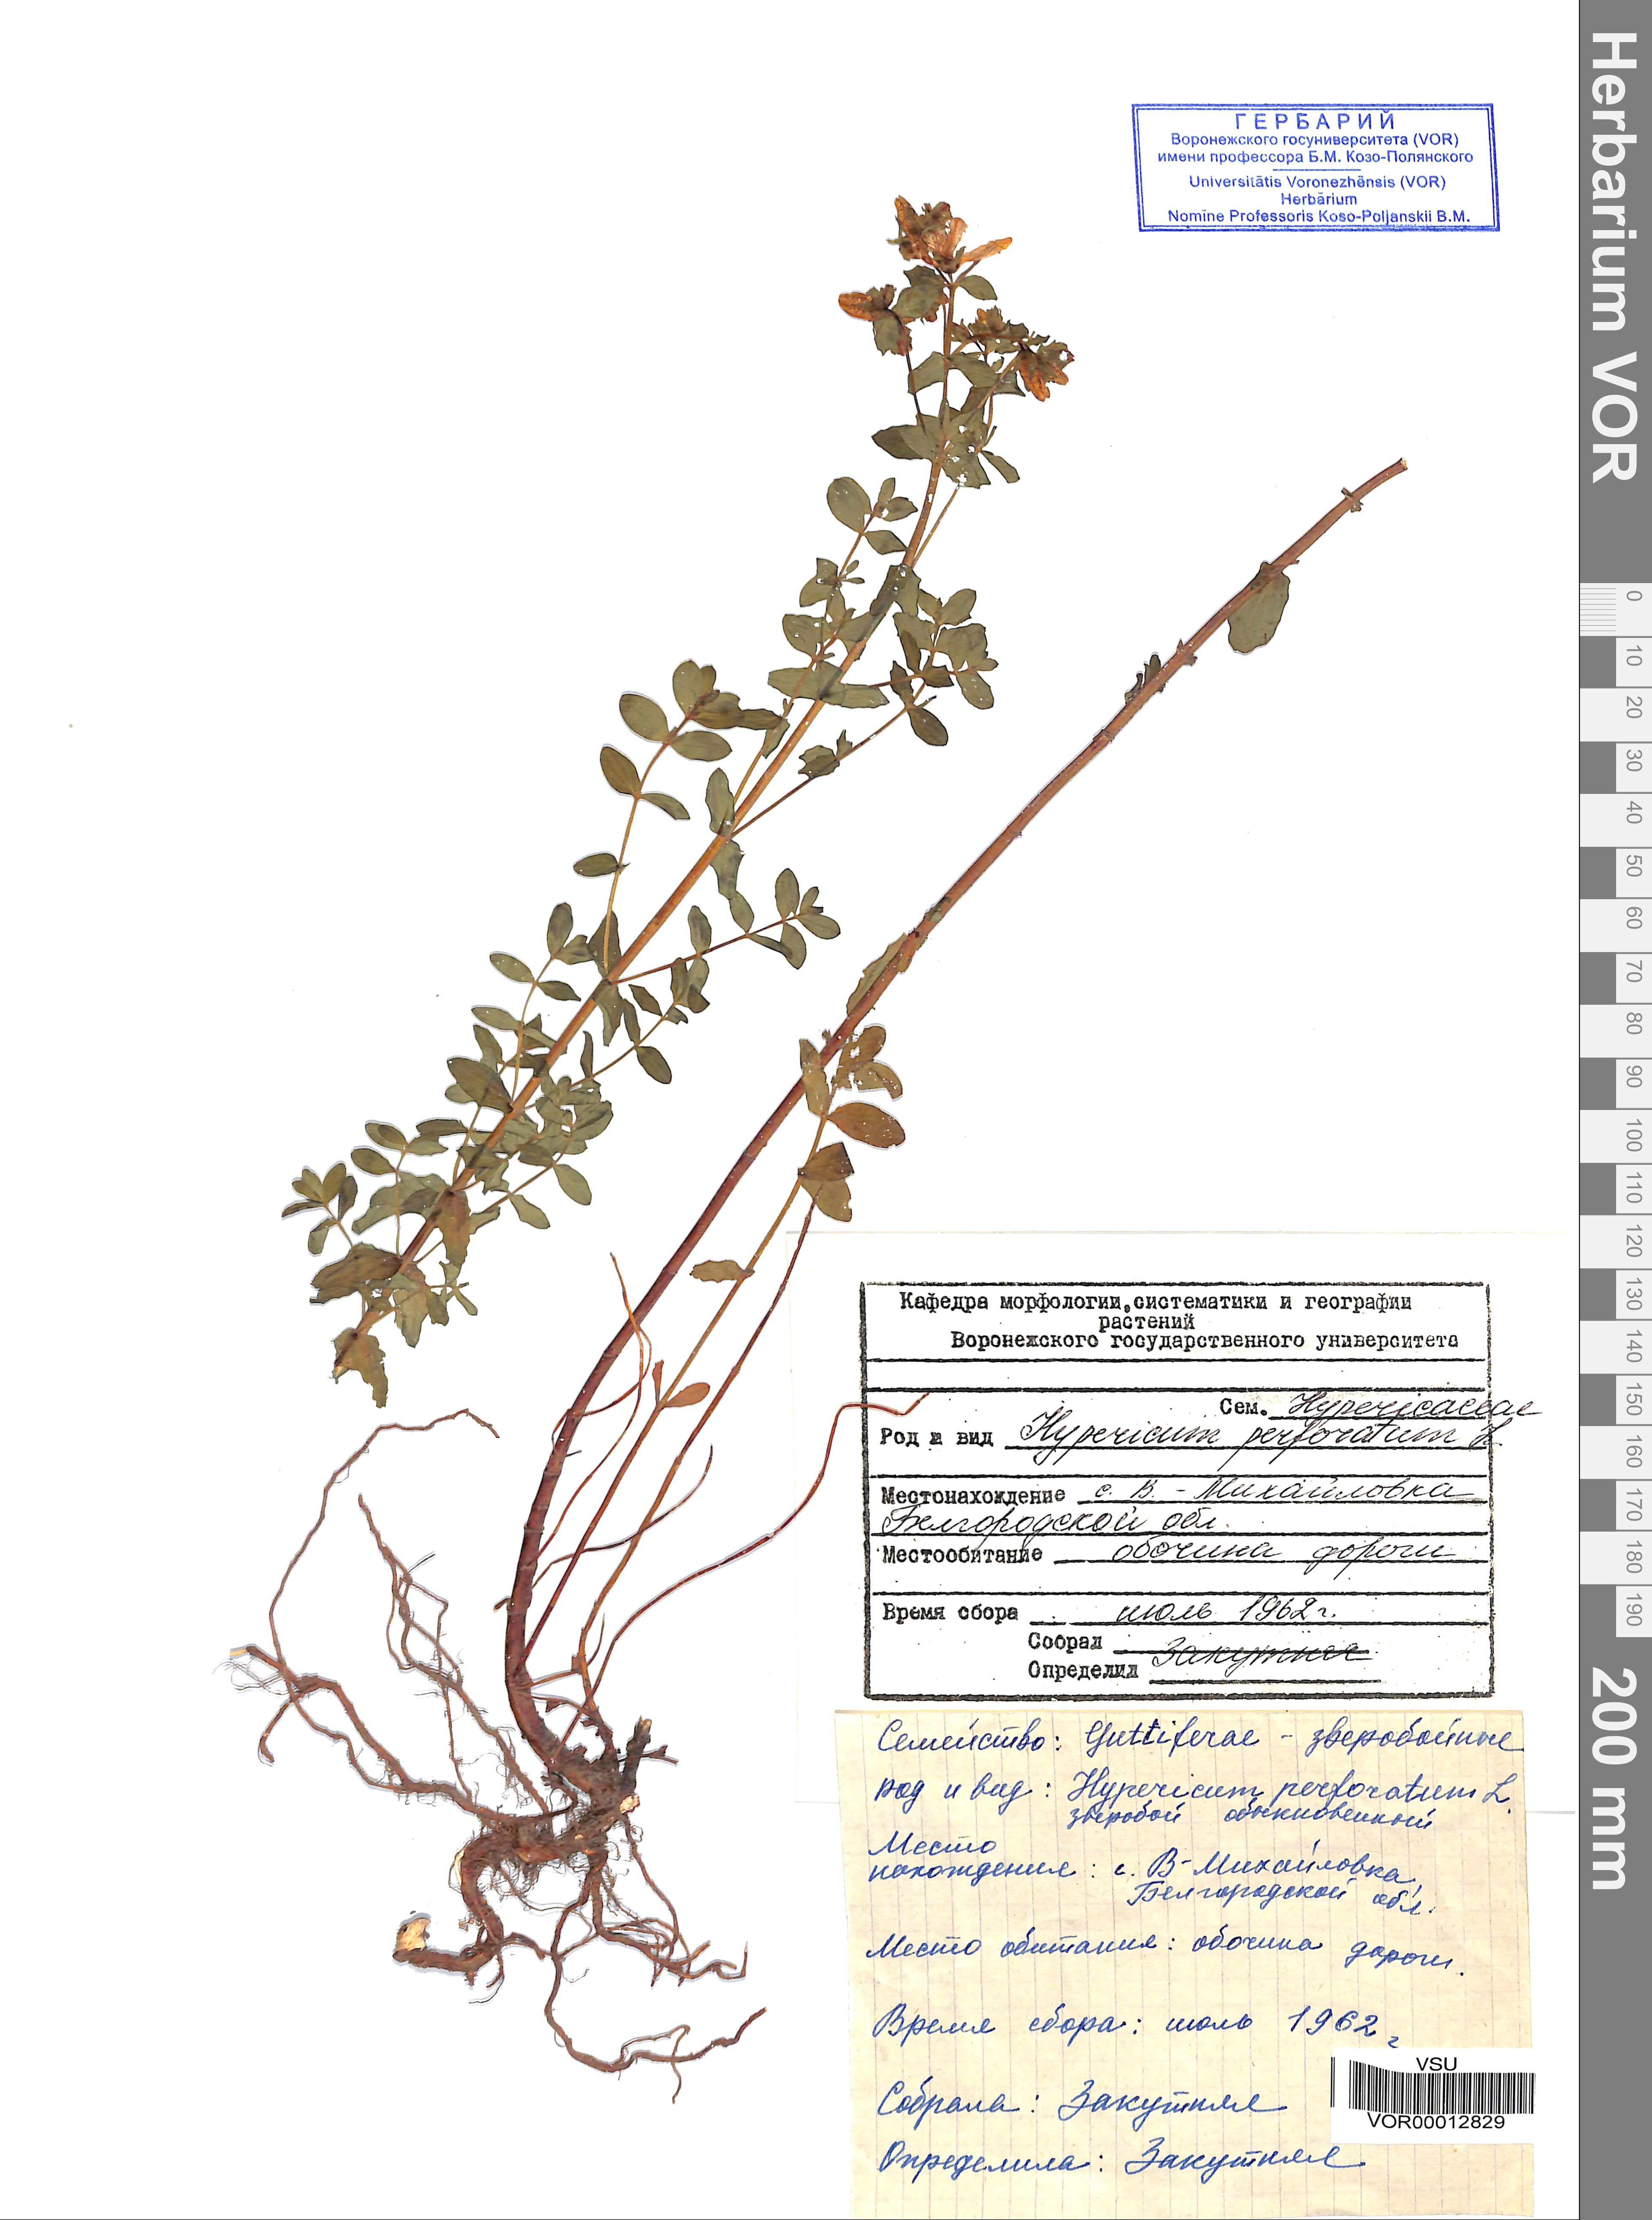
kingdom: Plantae
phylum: Tracheophyta
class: Magnoliopsida
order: Malpighiales
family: Hypericaceae
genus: Hypericum
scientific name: Hypericum perforatum
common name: Common st. johnswort
